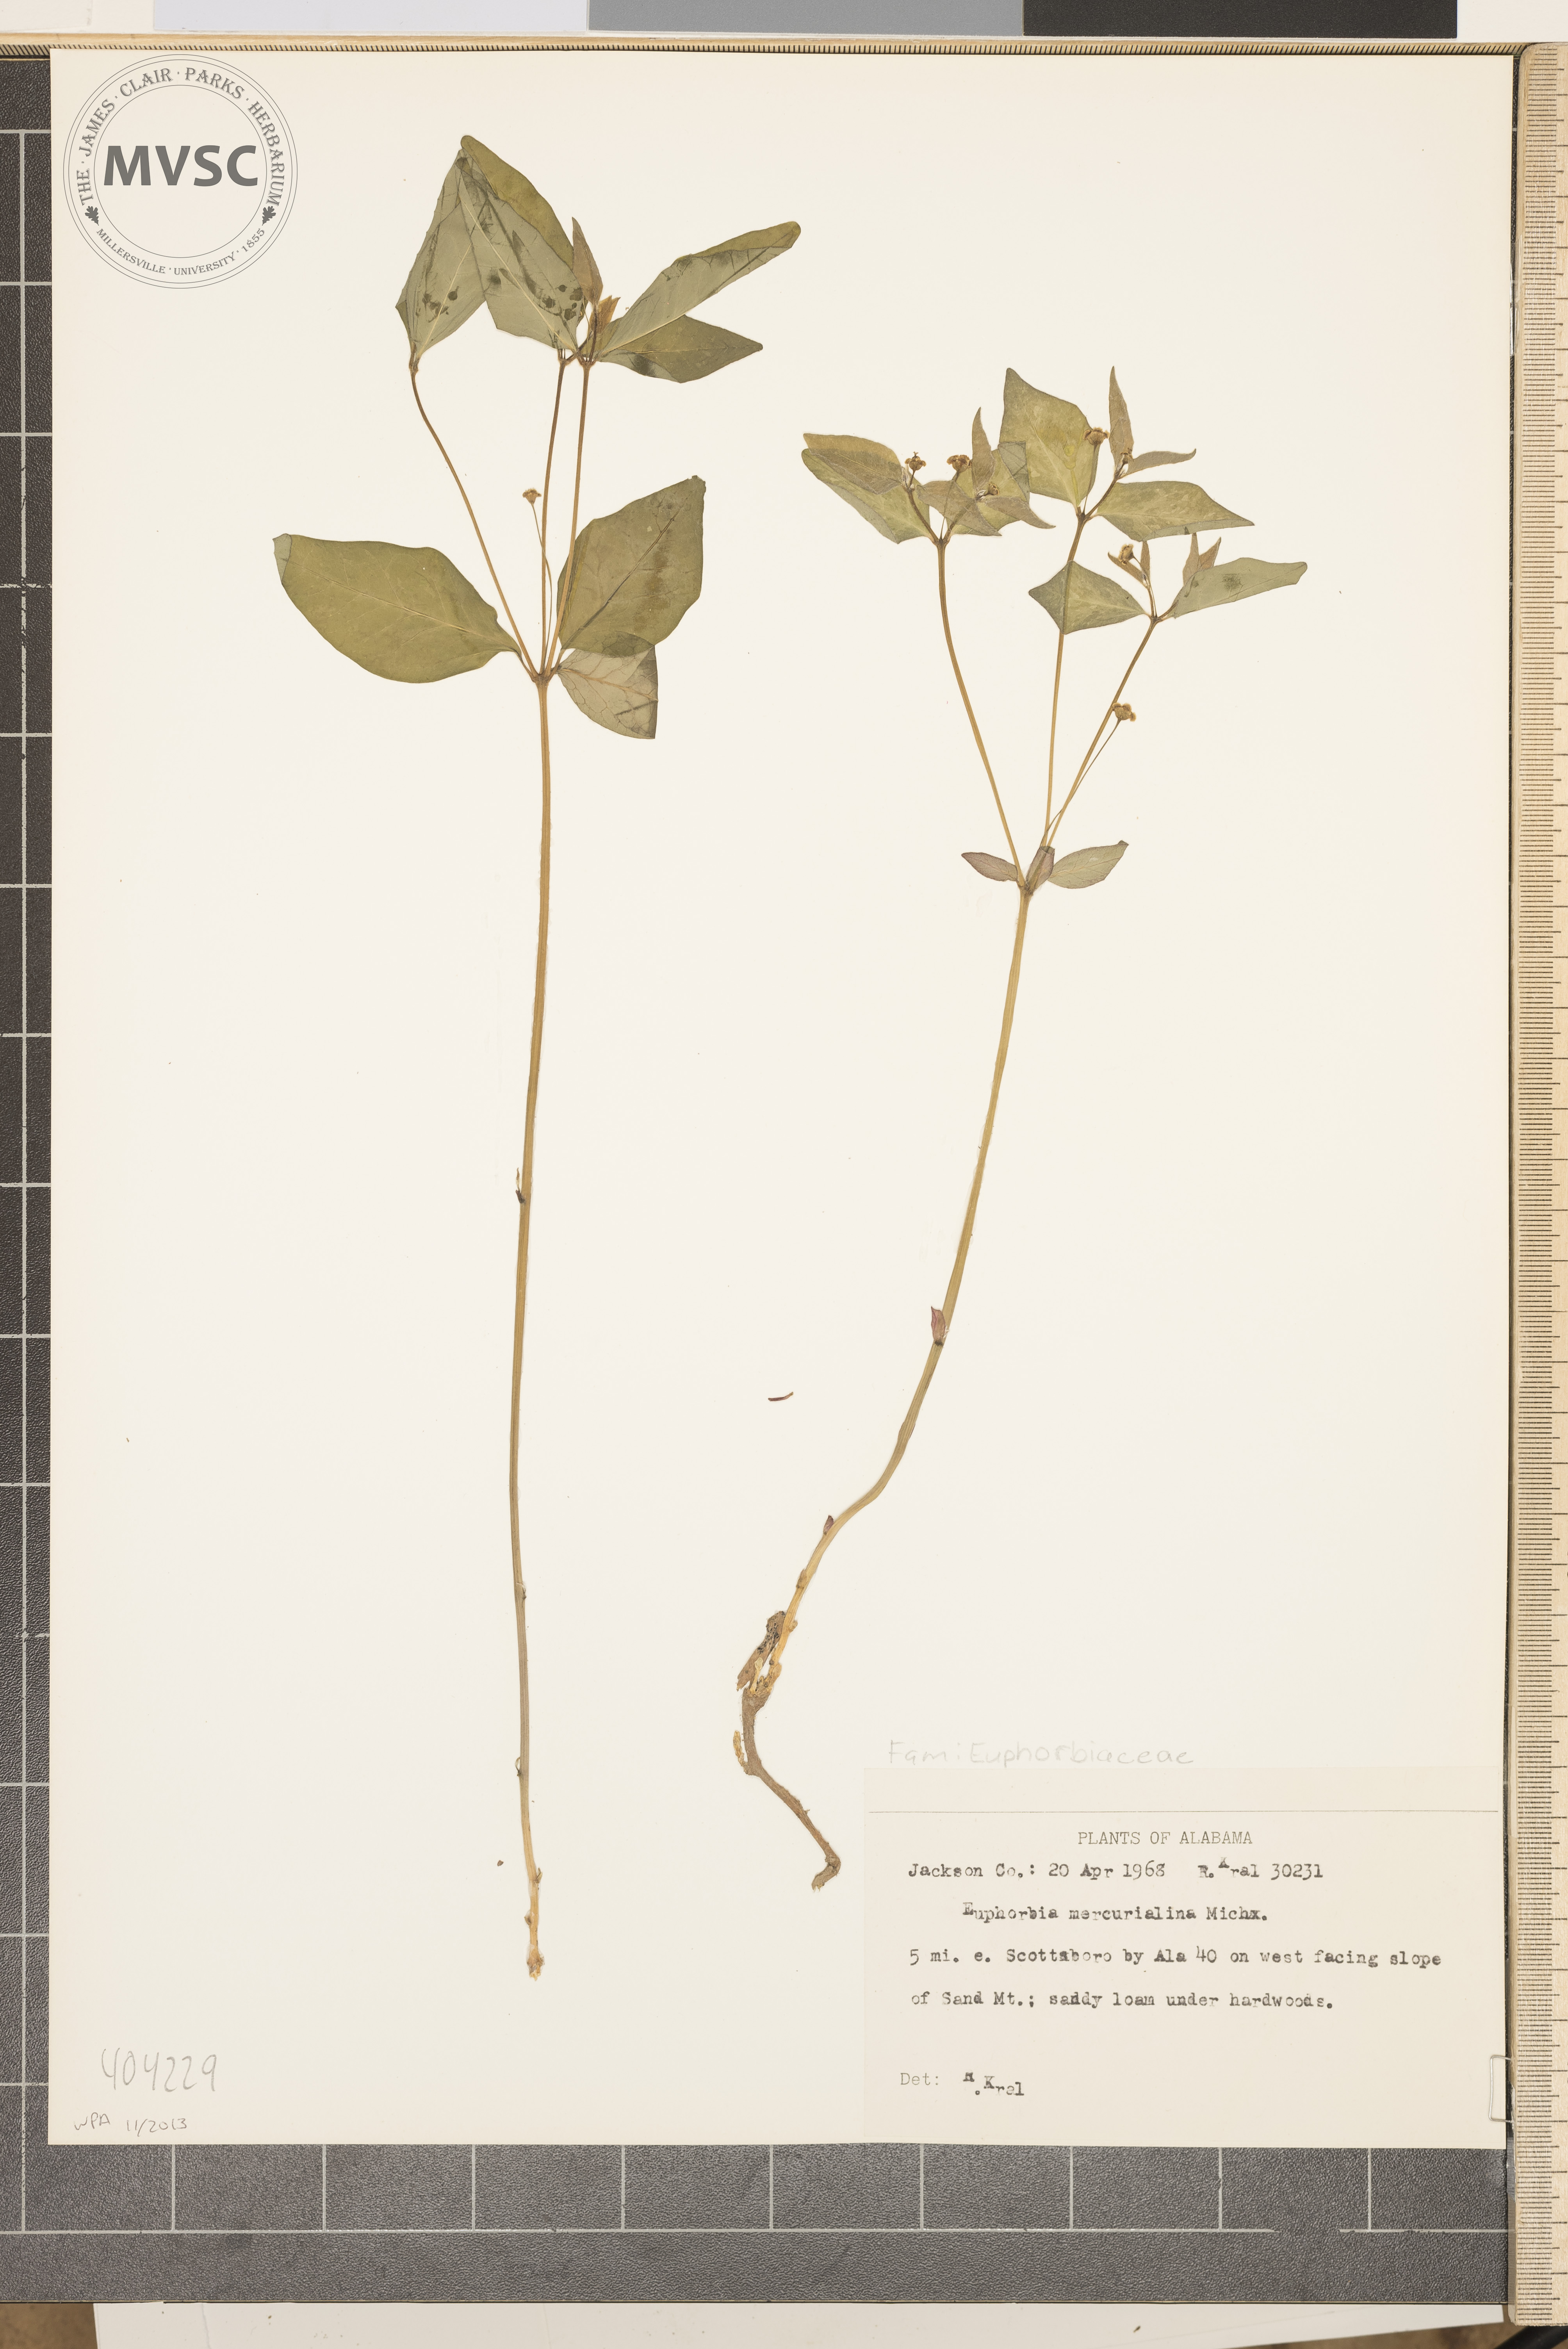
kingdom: Plantae
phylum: Tracheophyta
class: Magnoliopsida
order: Malpighiales
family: Euphorbiaceae
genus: Euphorbia
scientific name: Euphorbia mercurialina
